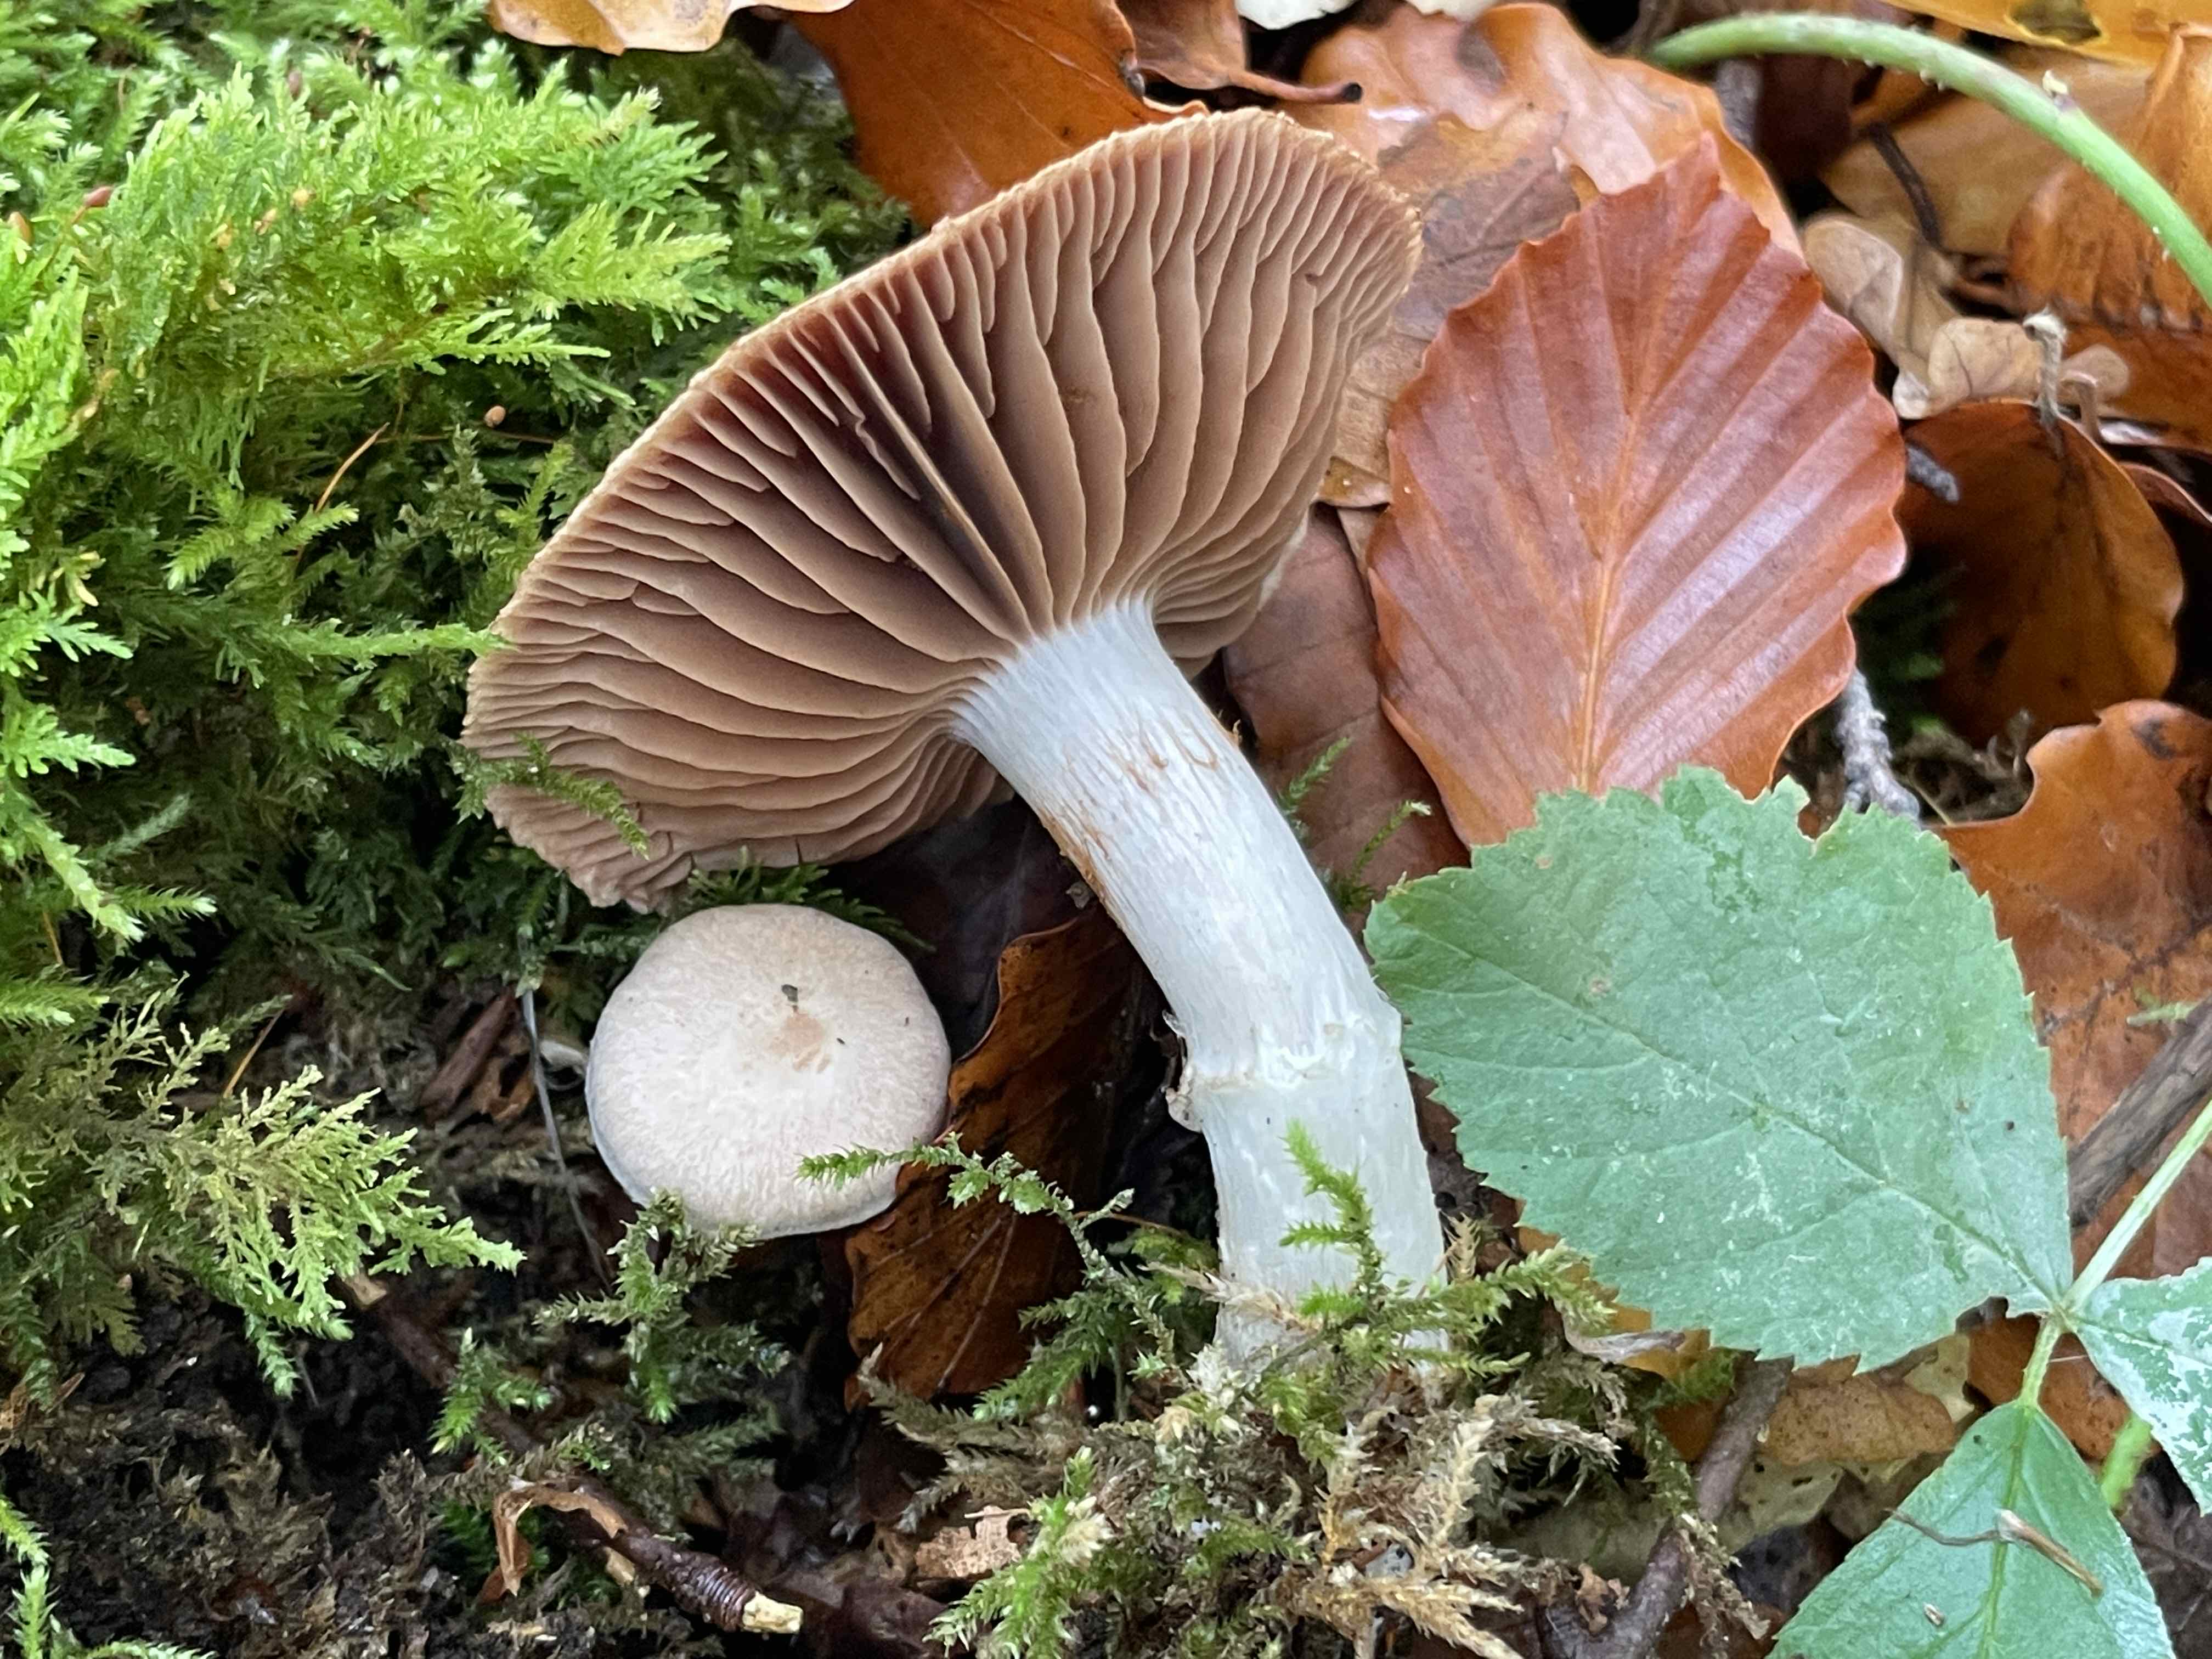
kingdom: Fungi
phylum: Basidiomycota
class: Agaricomycetes
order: Agaricales
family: Cortinariaceae
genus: Cortinarius
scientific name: Cortinarius torvus
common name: champignonagtig slørhat
